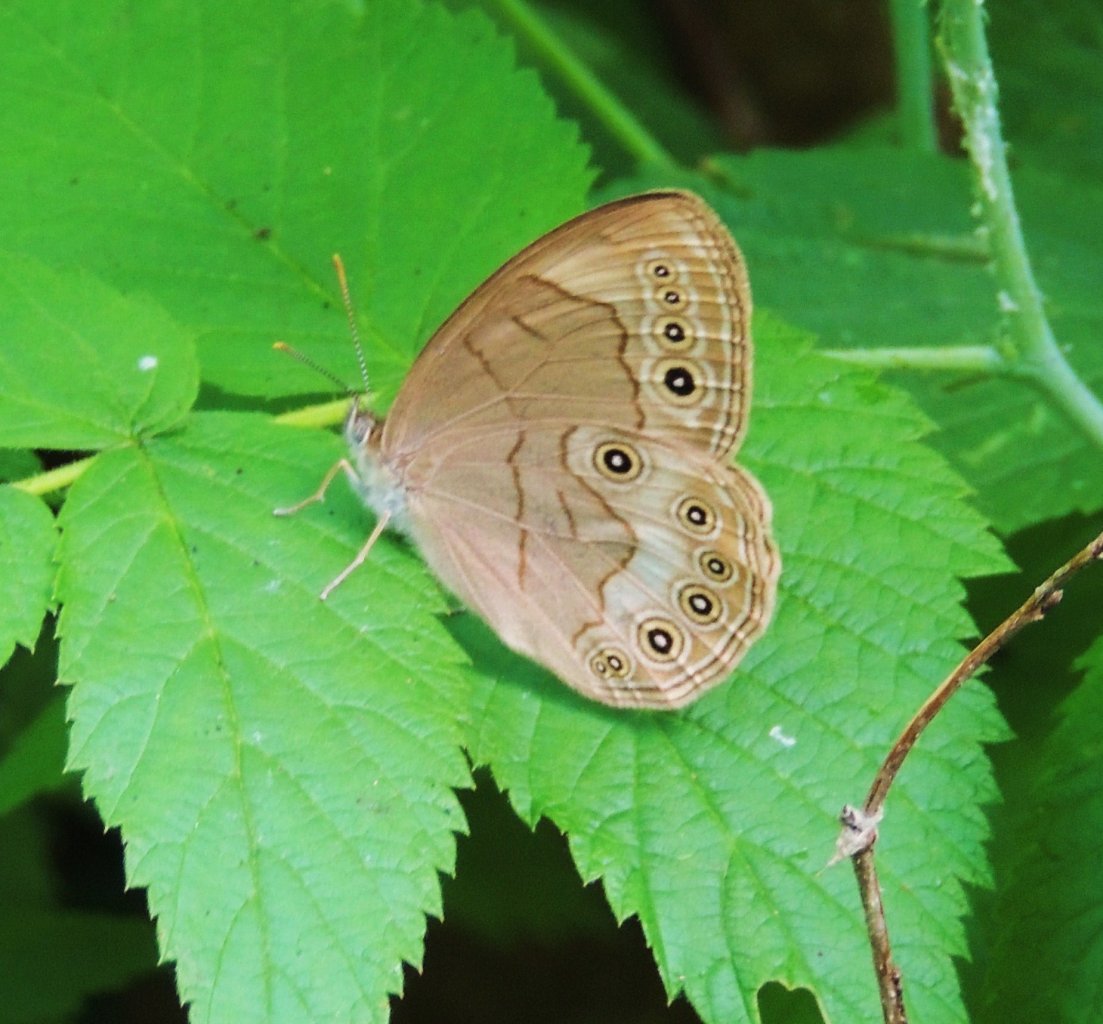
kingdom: Animalia
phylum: Arthropoda
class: Insecta
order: Lepidoptera
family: Nymphalidae
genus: Lethe
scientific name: Lethe eurydice
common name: Appalachian Eyed Brown
